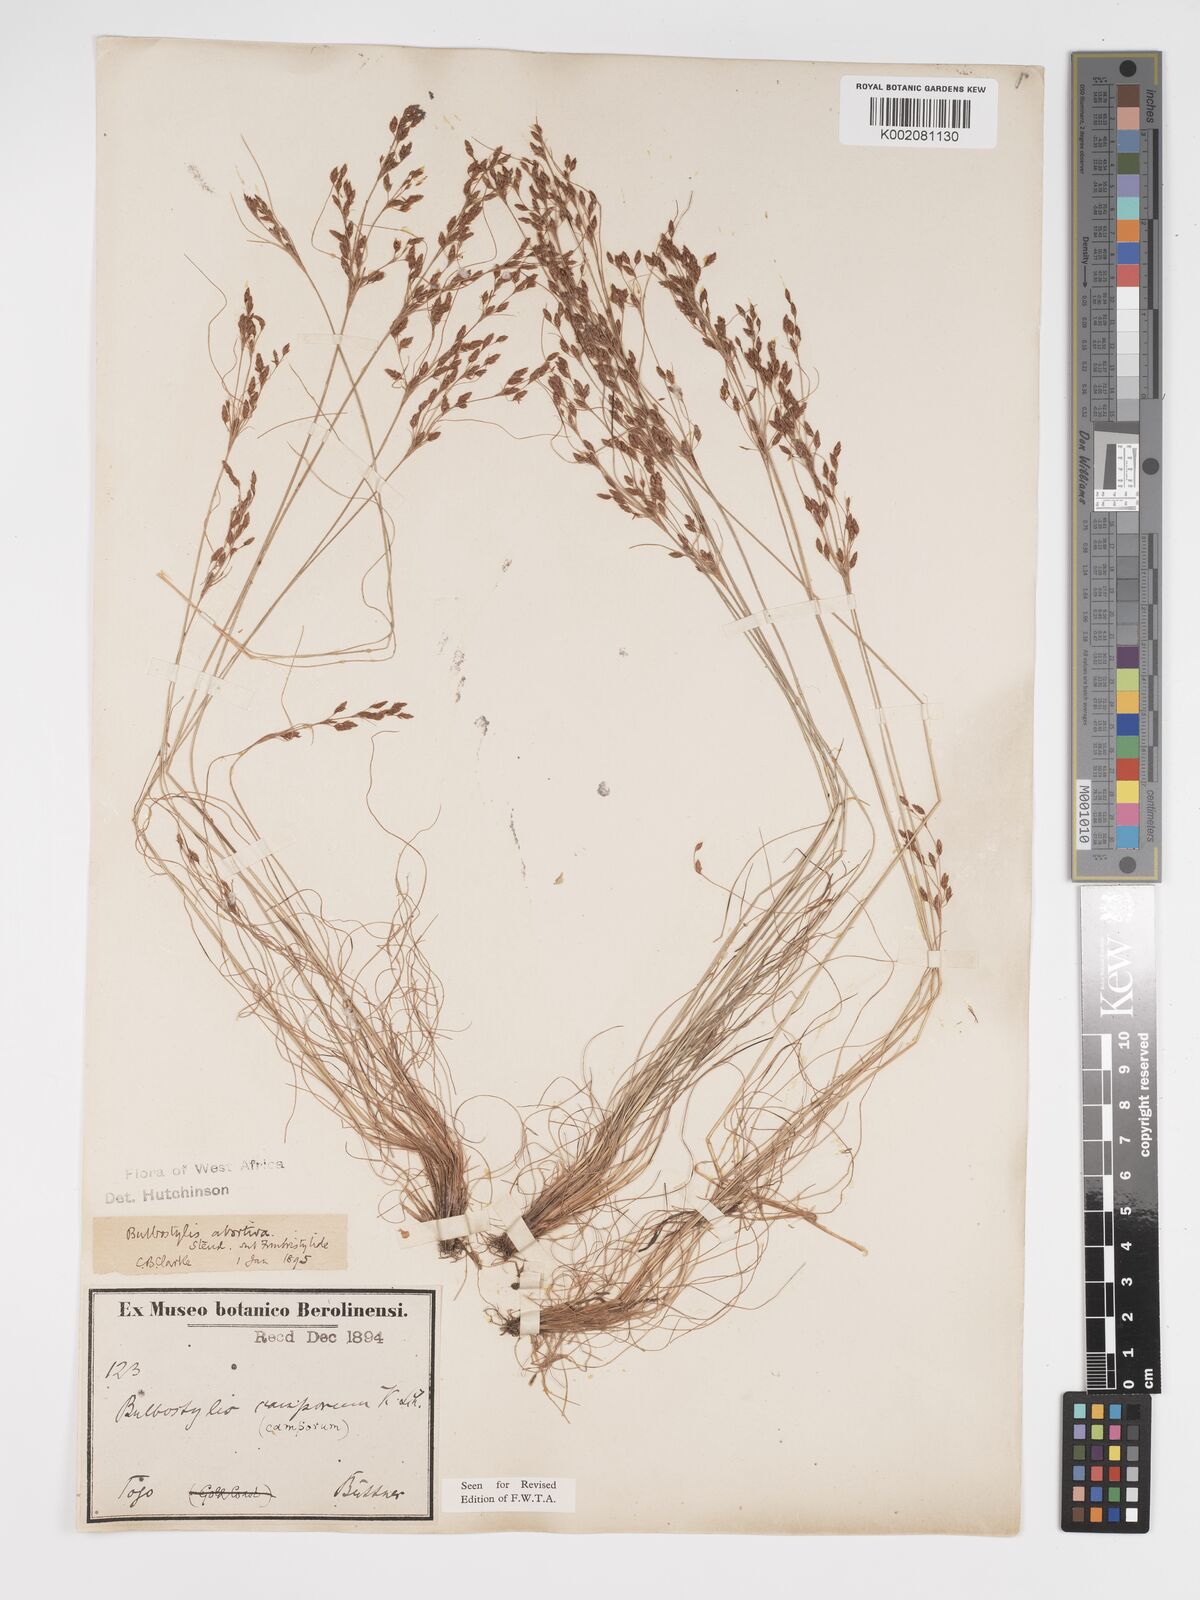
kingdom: Plantae
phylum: Tracheophyta
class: Liliopsida
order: Poales
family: Cyperaceae
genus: Bulbostylis
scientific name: Bulbostylis abortiva
